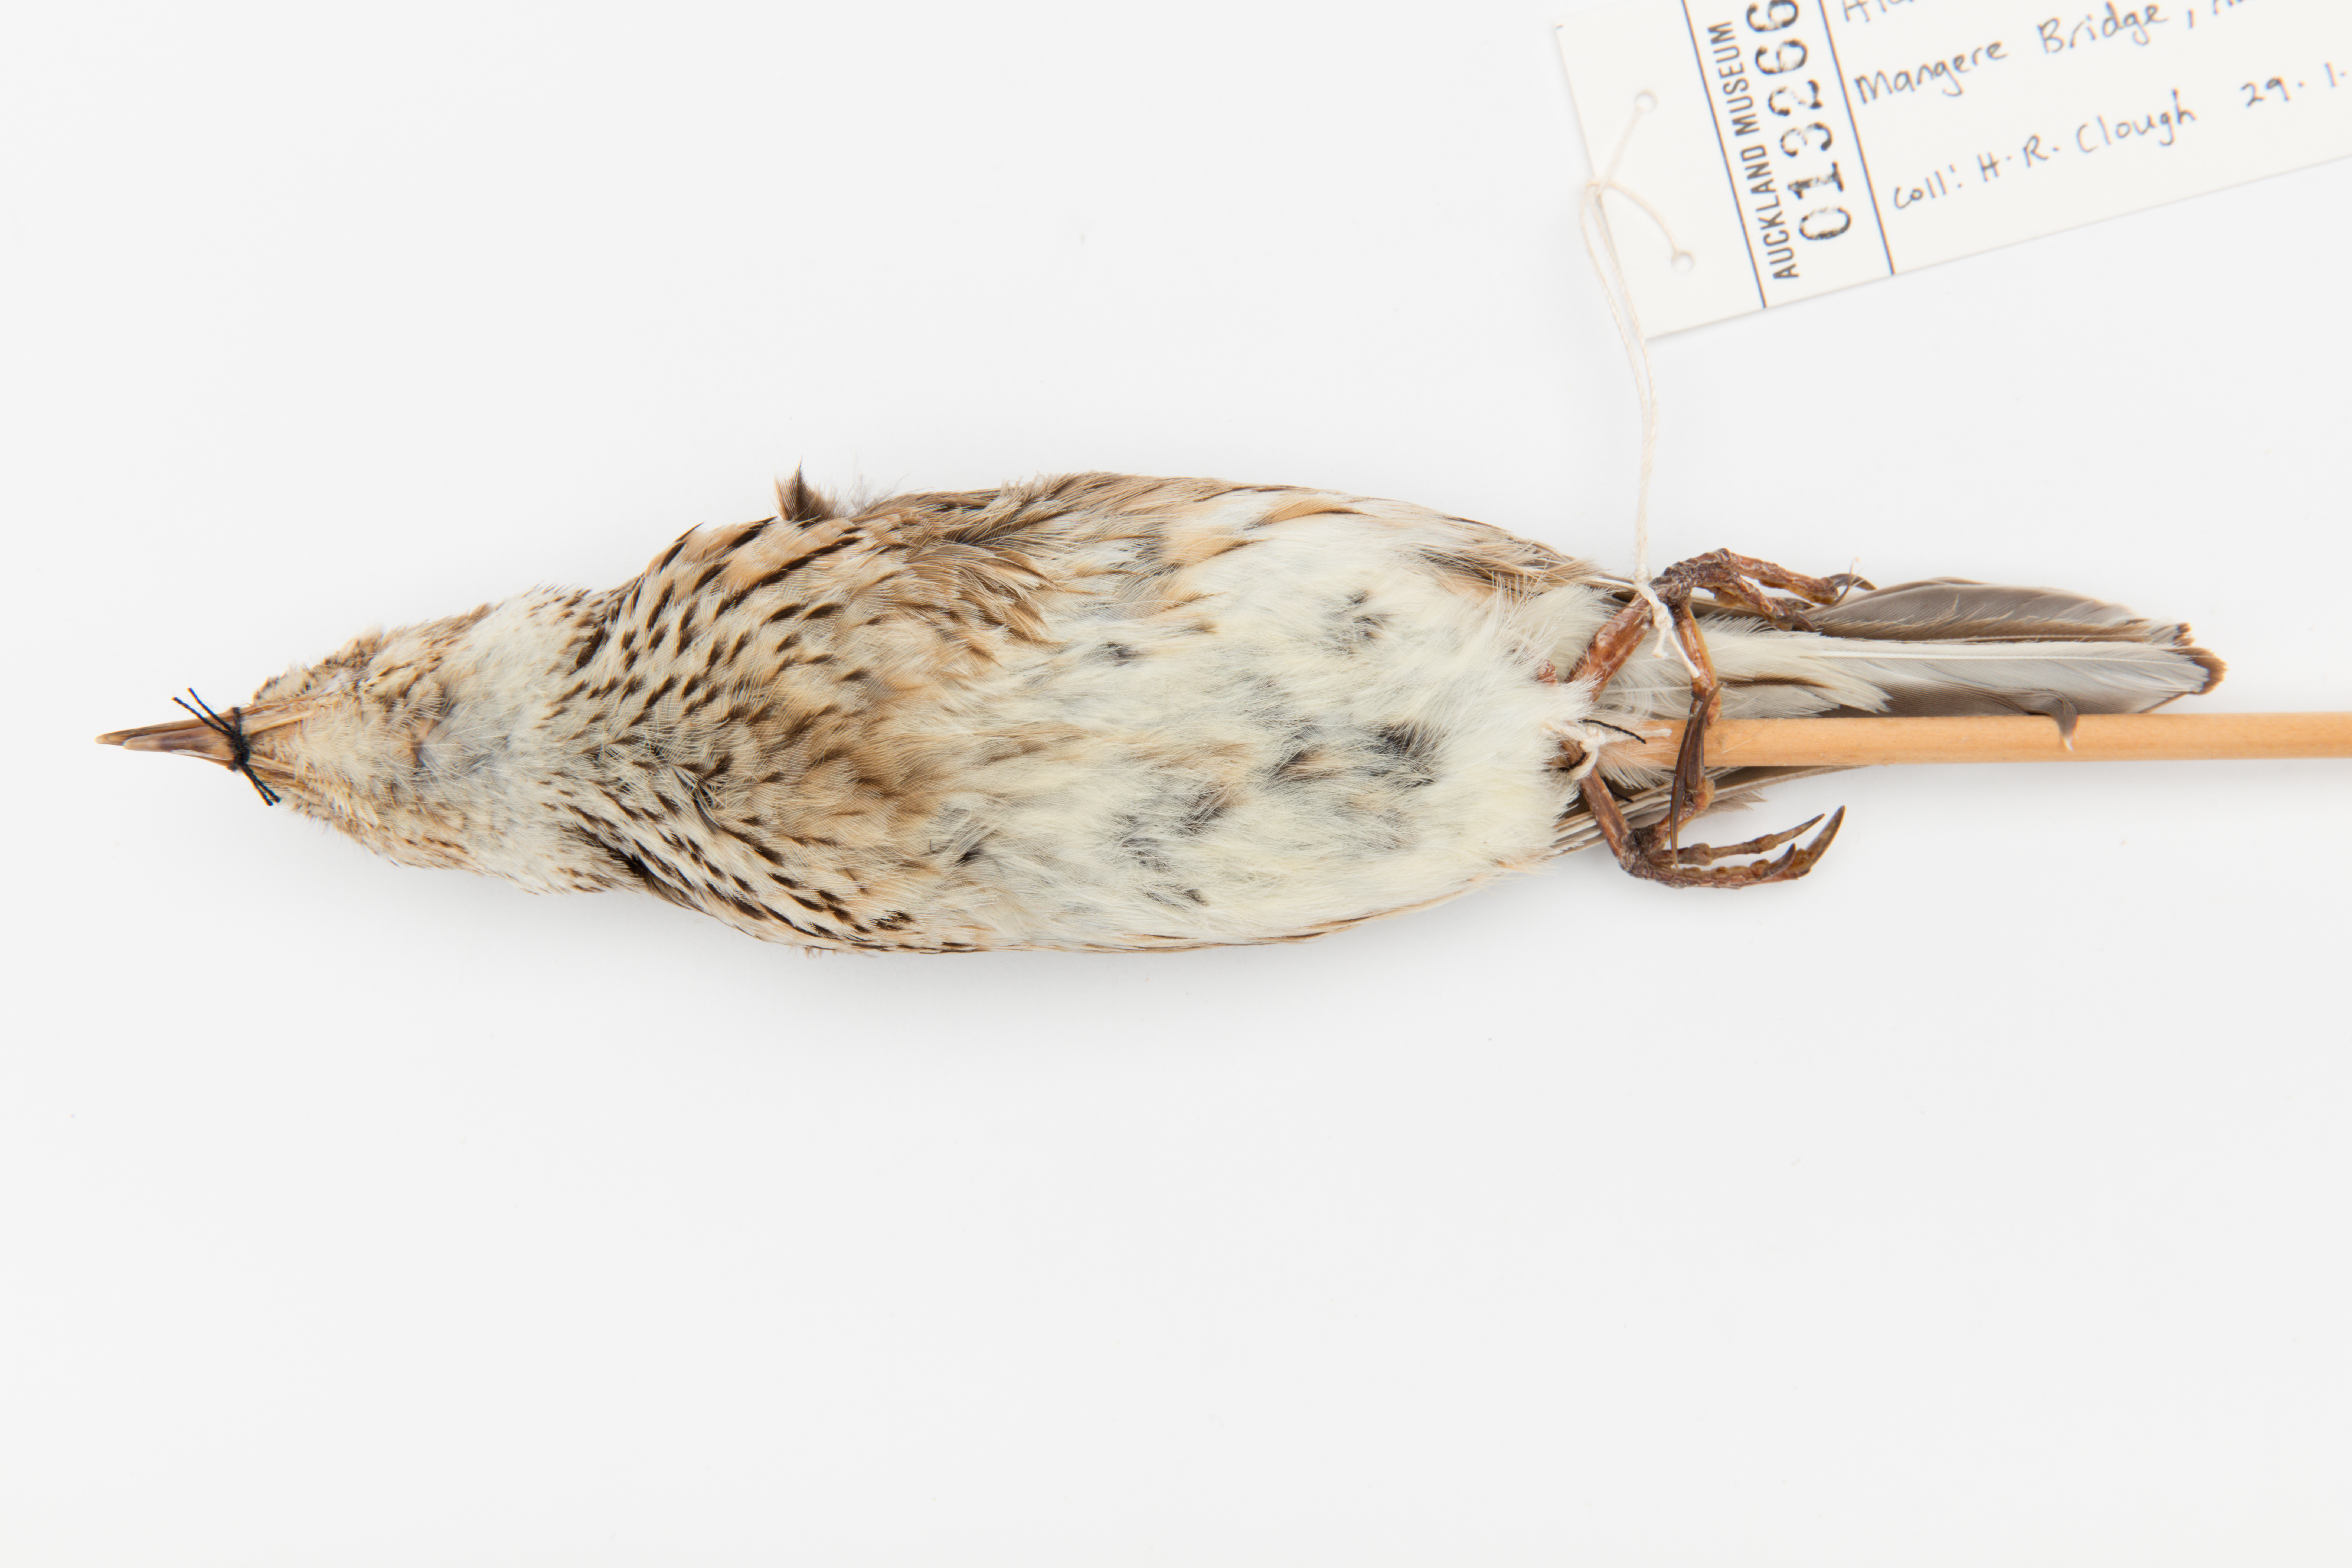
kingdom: Animalia
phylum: Chordata
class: Aves
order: Passeriformes
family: Alaudidae
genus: Alauda
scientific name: Alauda arvensis
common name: Eurasian skylark
